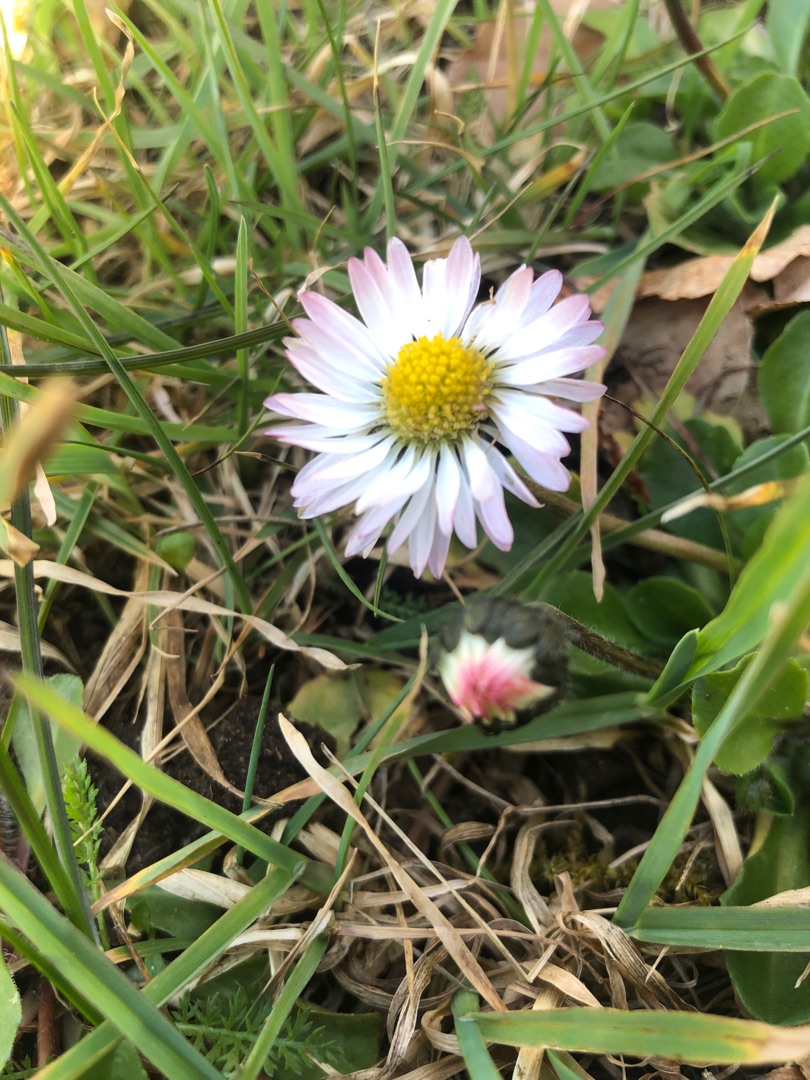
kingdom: Plantae
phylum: Tracheophyta
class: Magnoliopsida
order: Asterales
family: Asteraceae
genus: Bellis
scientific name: Bellis perennis
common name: Tusindfryd
